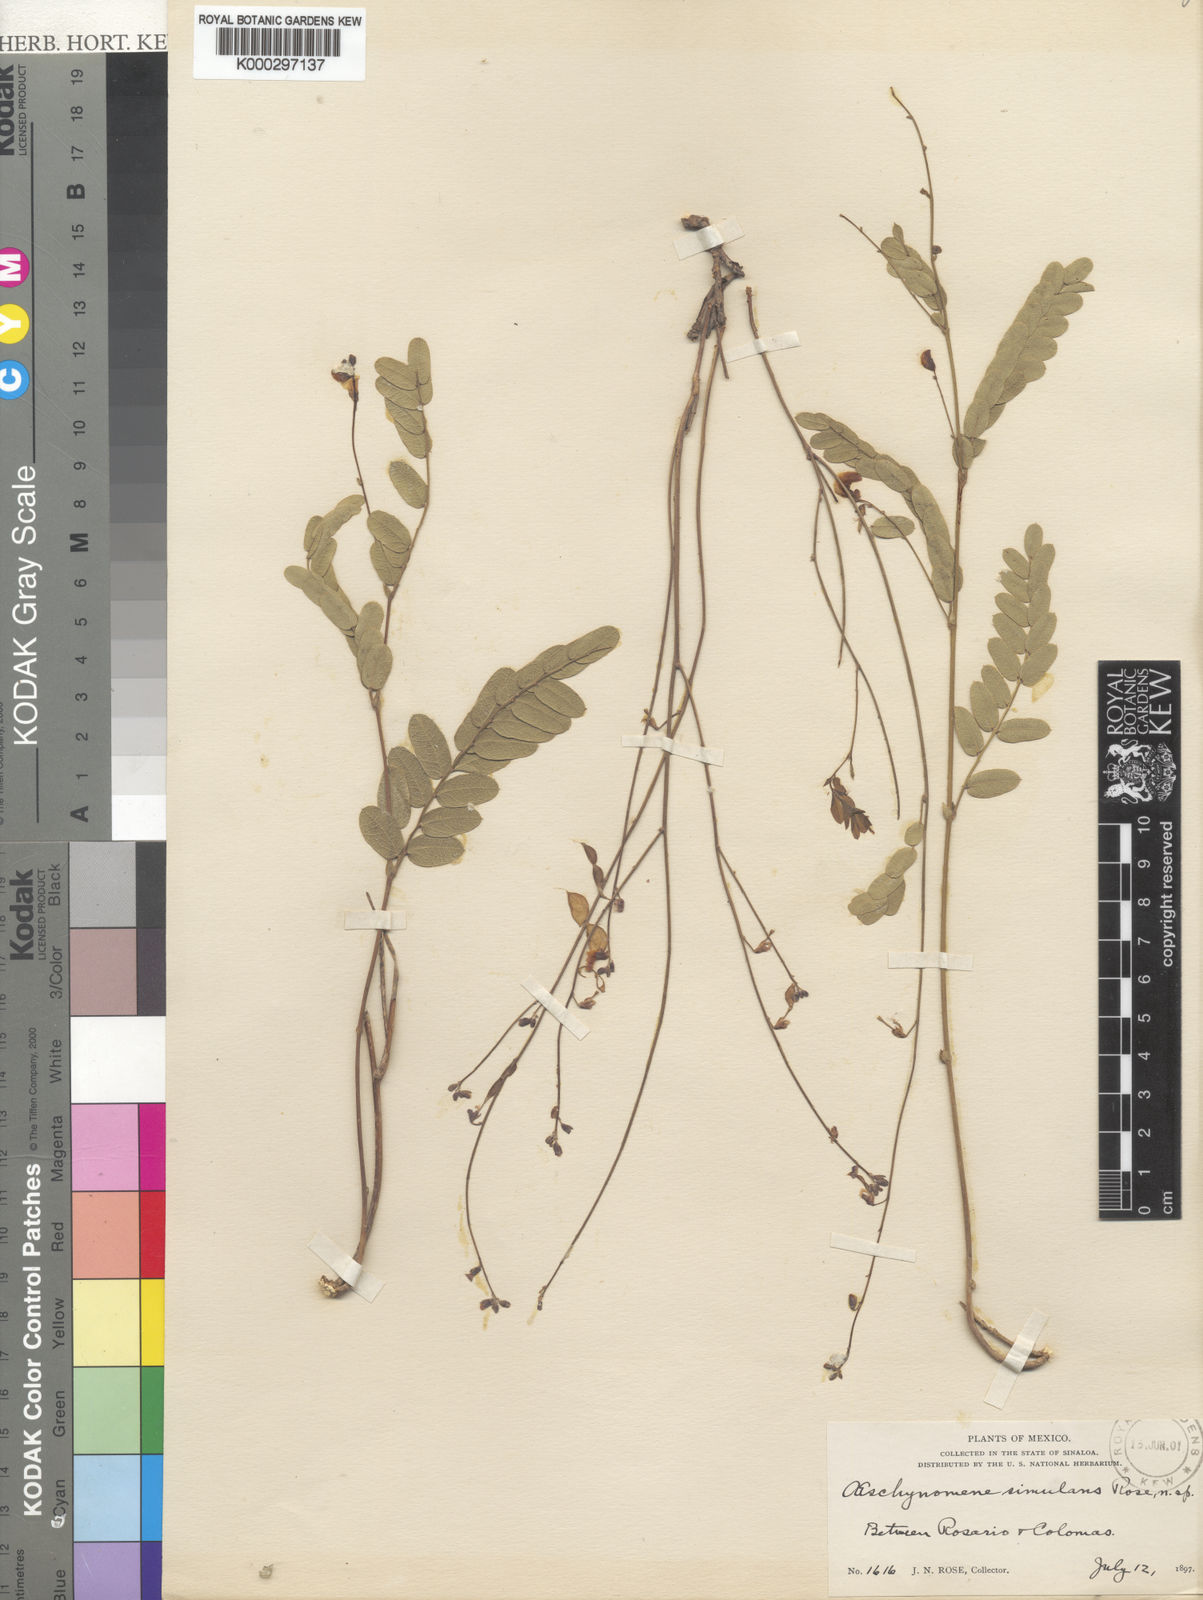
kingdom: Plantae
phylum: Tracheophyta
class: Magnoliopsida
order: Fabales
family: Fabaceae
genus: Ctenodon
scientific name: Ctenodon simulans
